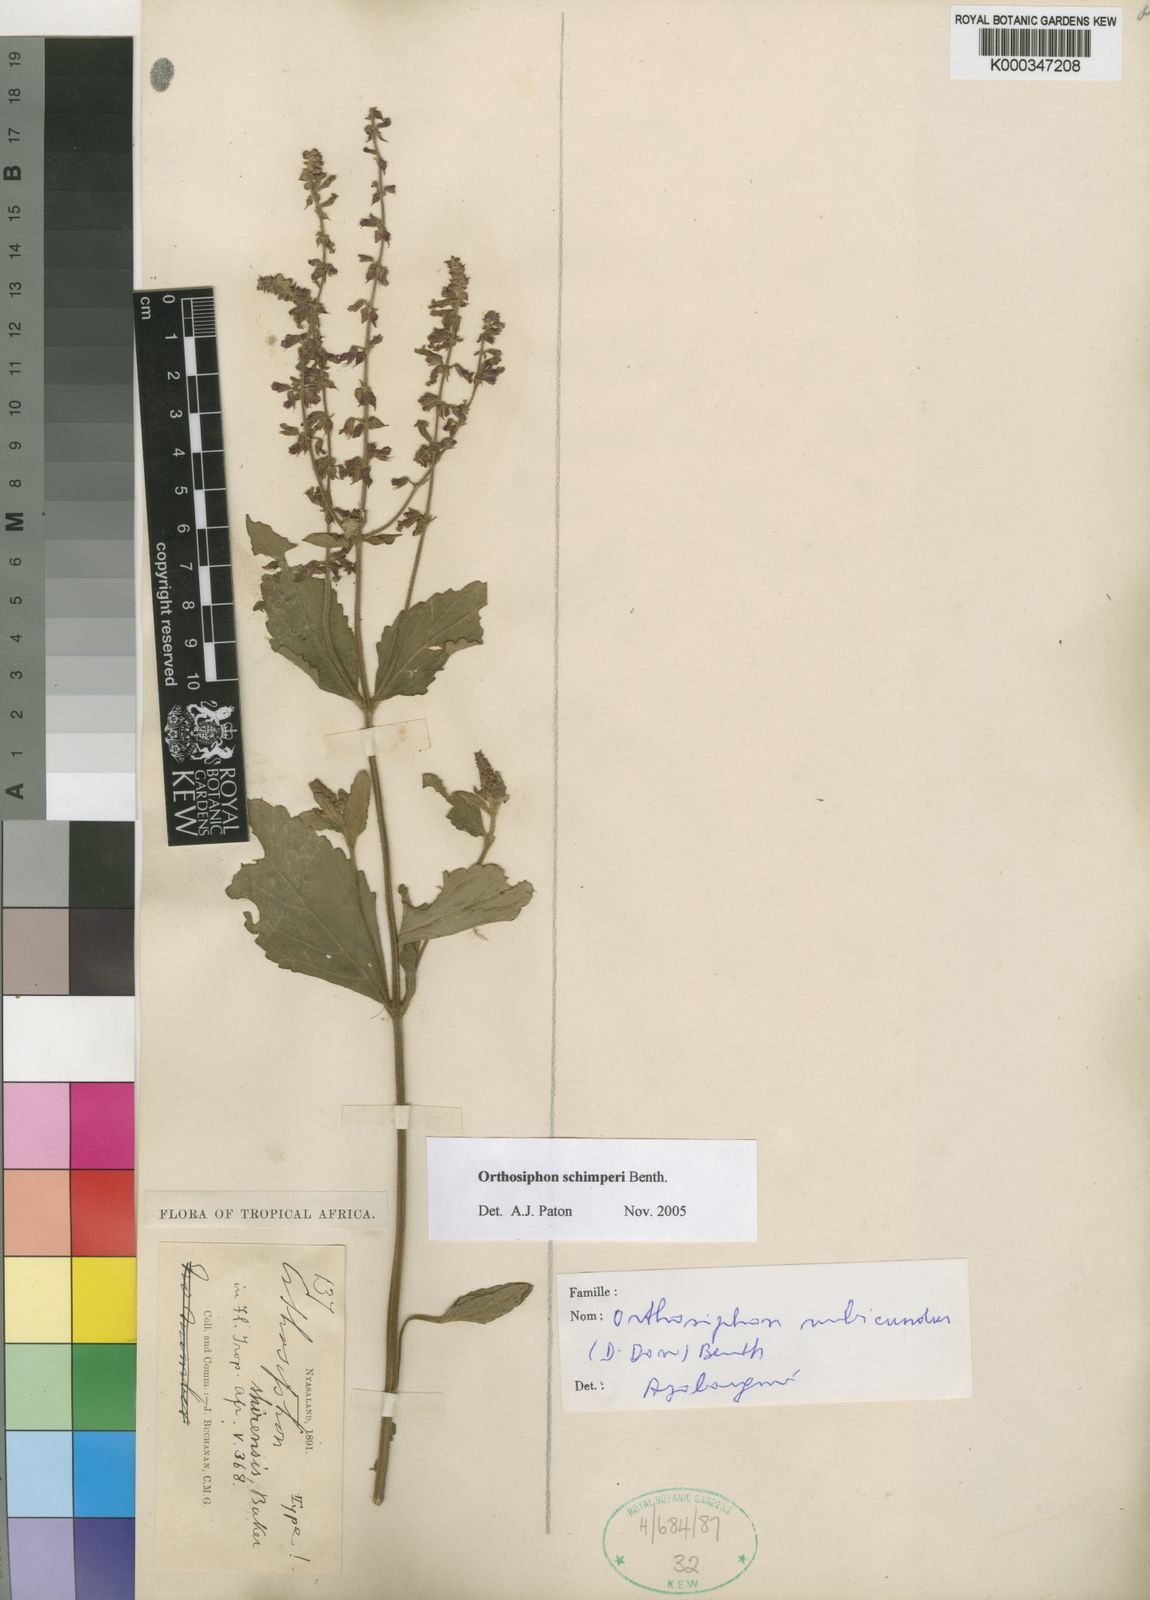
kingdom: Plantae
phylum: Tracheophyta
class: Magnoliopsida
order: Lamiales
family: Lamiaceae
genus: Orthosiphon
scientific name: Orthosiphon schimperi
